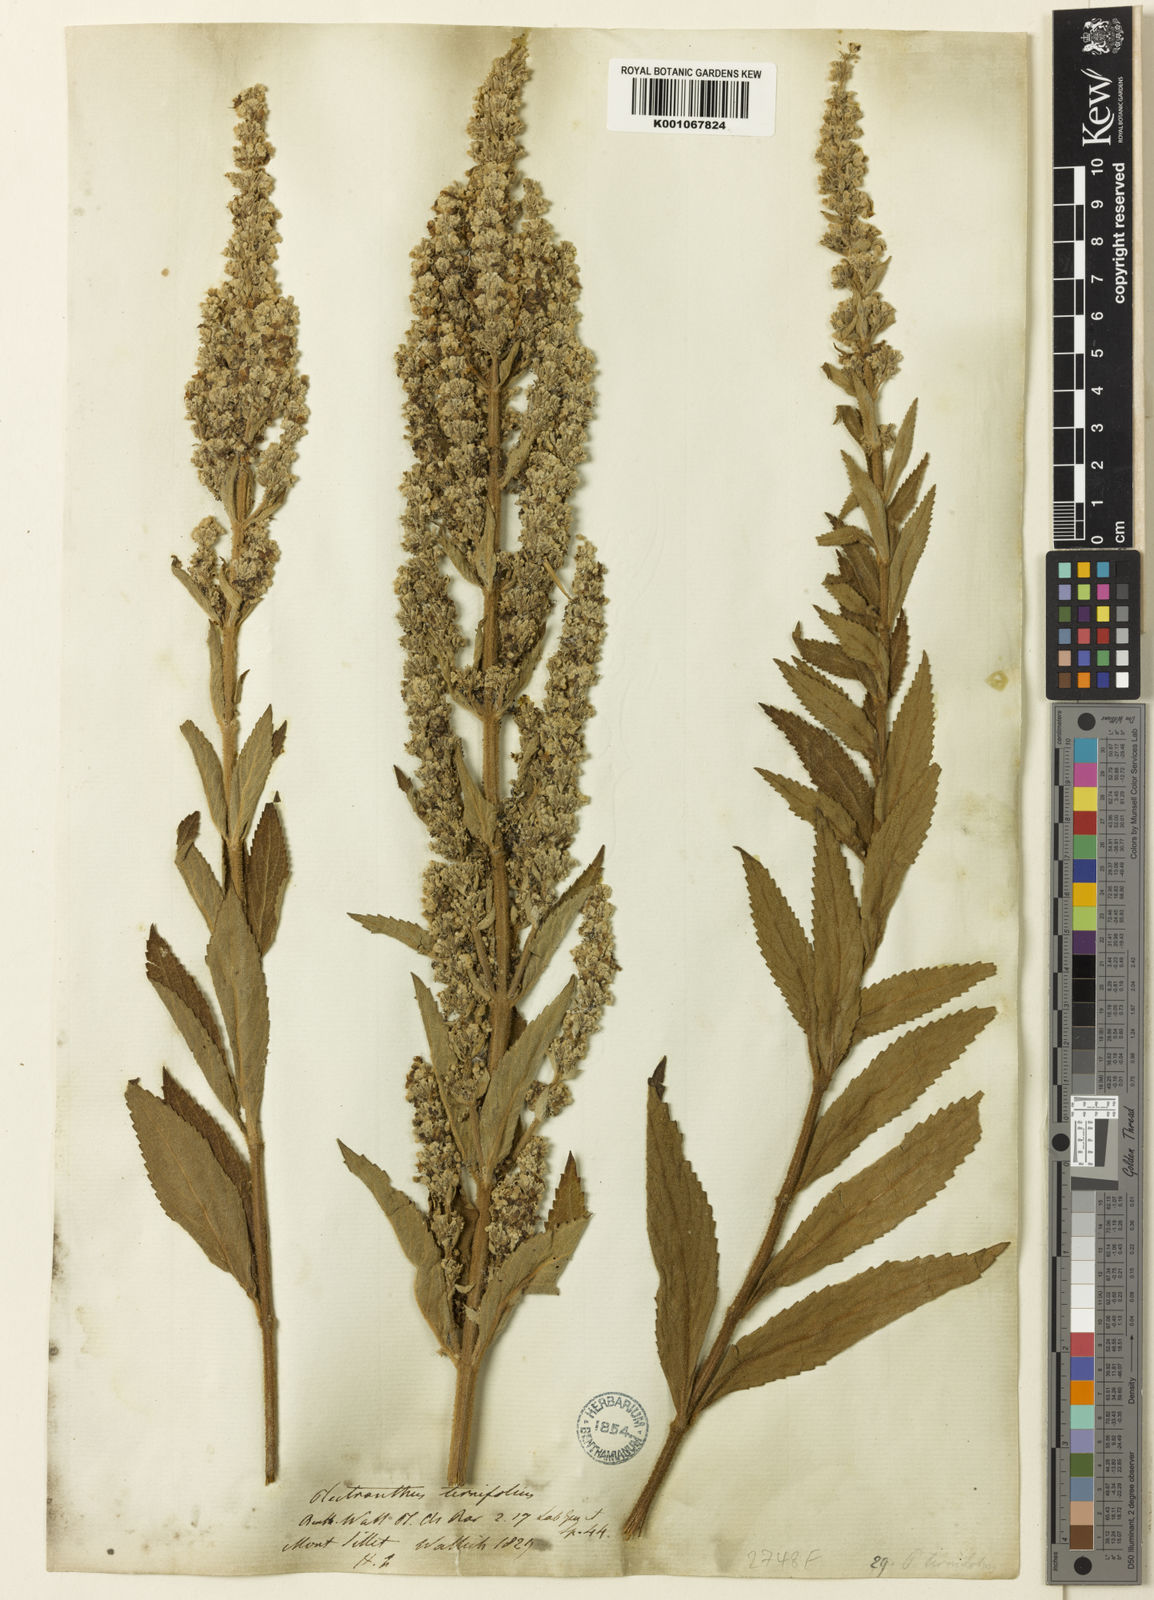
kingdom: Plantae
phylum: Tracheophyta
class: Magnoliopsida
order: Lamiales
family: Lamiaceae
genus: Isodon
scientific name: Isodon
